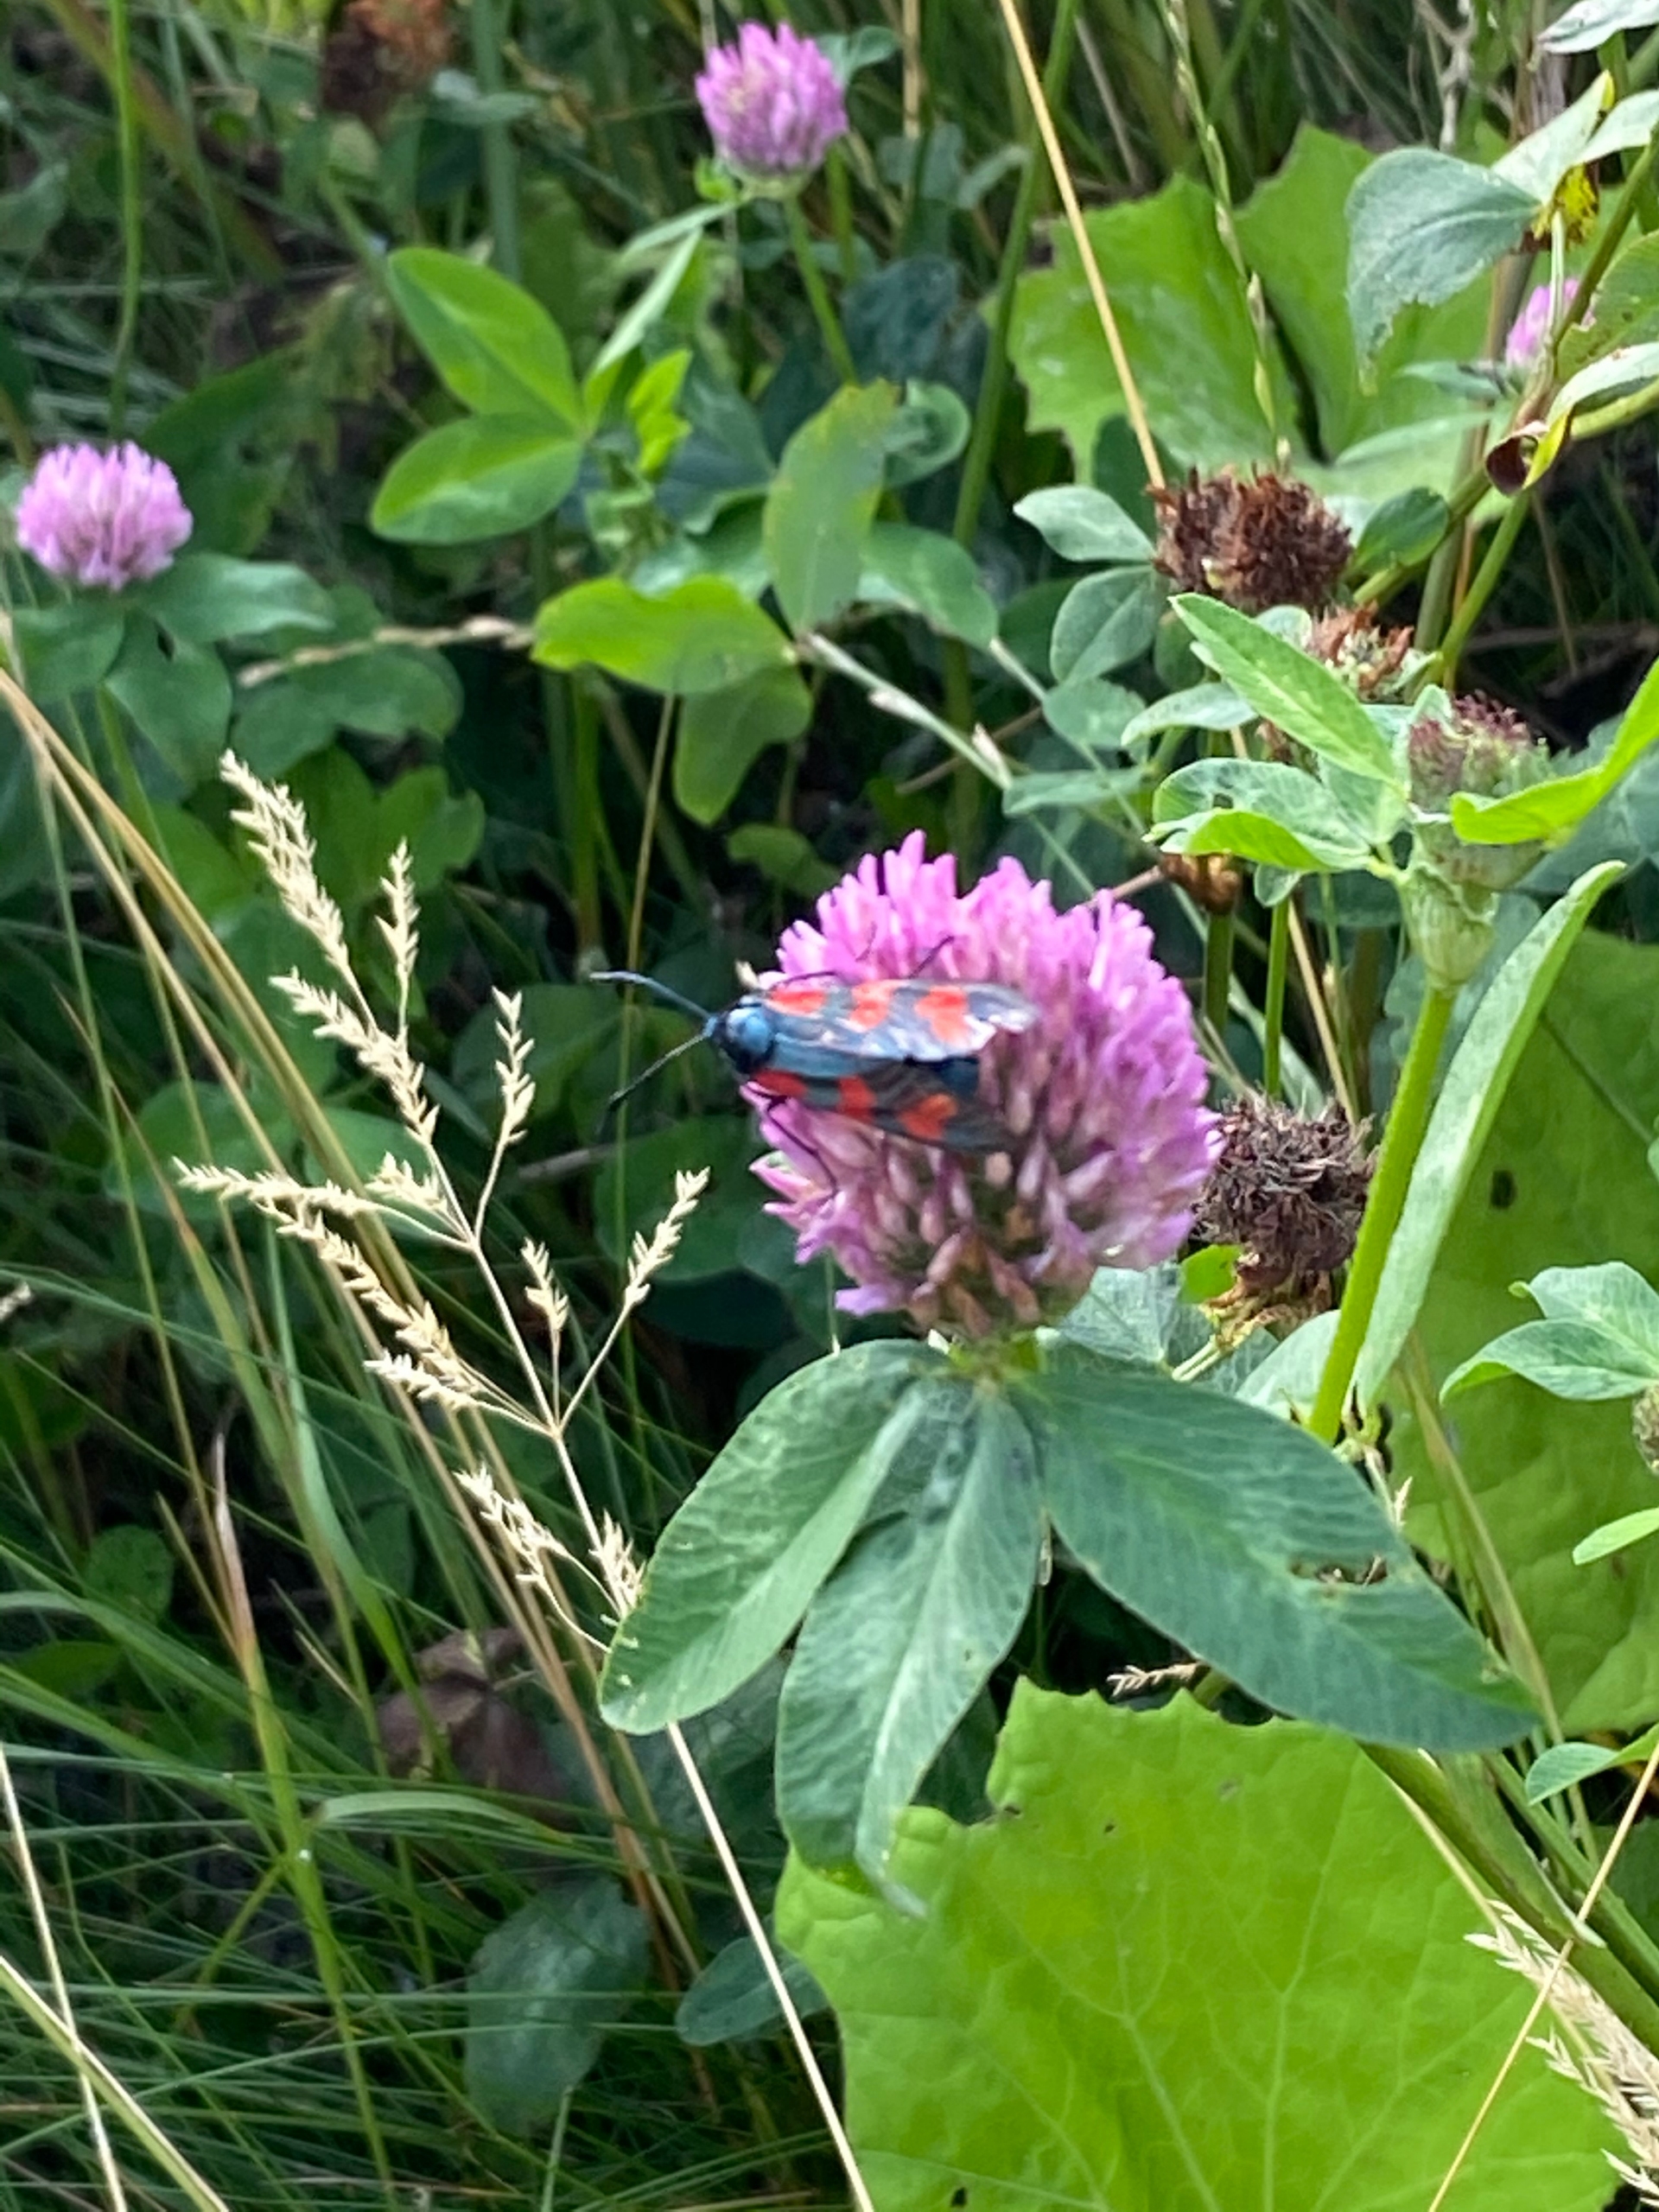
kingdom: Animalia
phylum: Arthropoda
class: Insecta
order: Lepidoptera
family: Zygaenidae
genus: Zygaena
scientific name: Zygaena filipendulae
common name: Seksplettet køllesværmer
